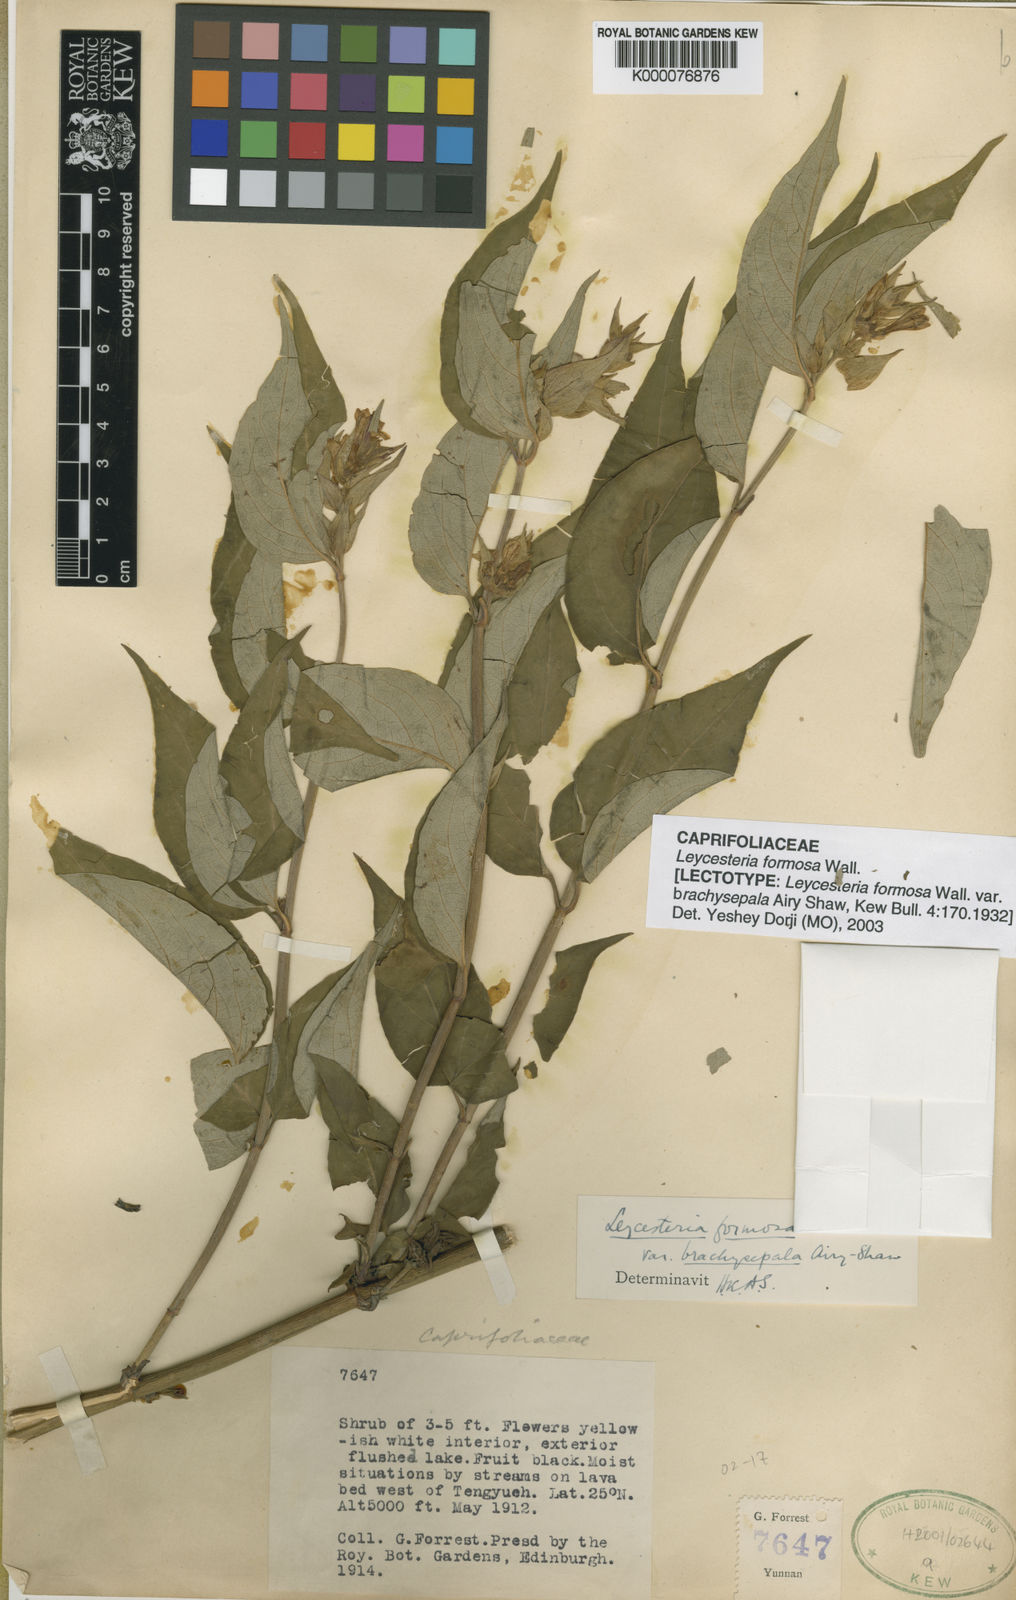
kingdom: Plantae
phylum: Tracheophyta
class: Magnoliopsida
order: Dipsacales
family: Caprifoliaceae
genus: Leycesteria
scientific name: Leycesteria formosa
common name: Himalayan honeysuckle
